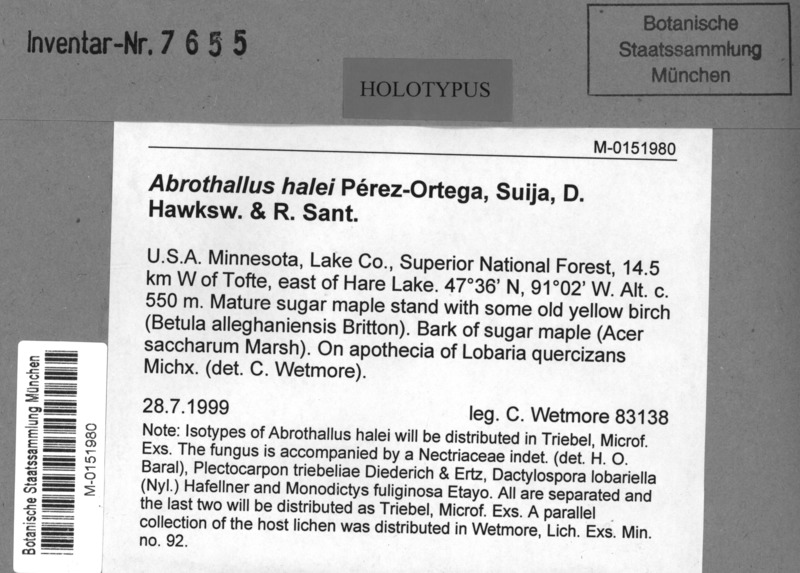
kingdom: Fungi
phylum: Ascomycota
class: Lecanoromycetes
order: Peltigerales
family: Lobariaceae
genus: Ricasolia
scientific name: Ricasolia quercizans
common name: Smooth lungwort
